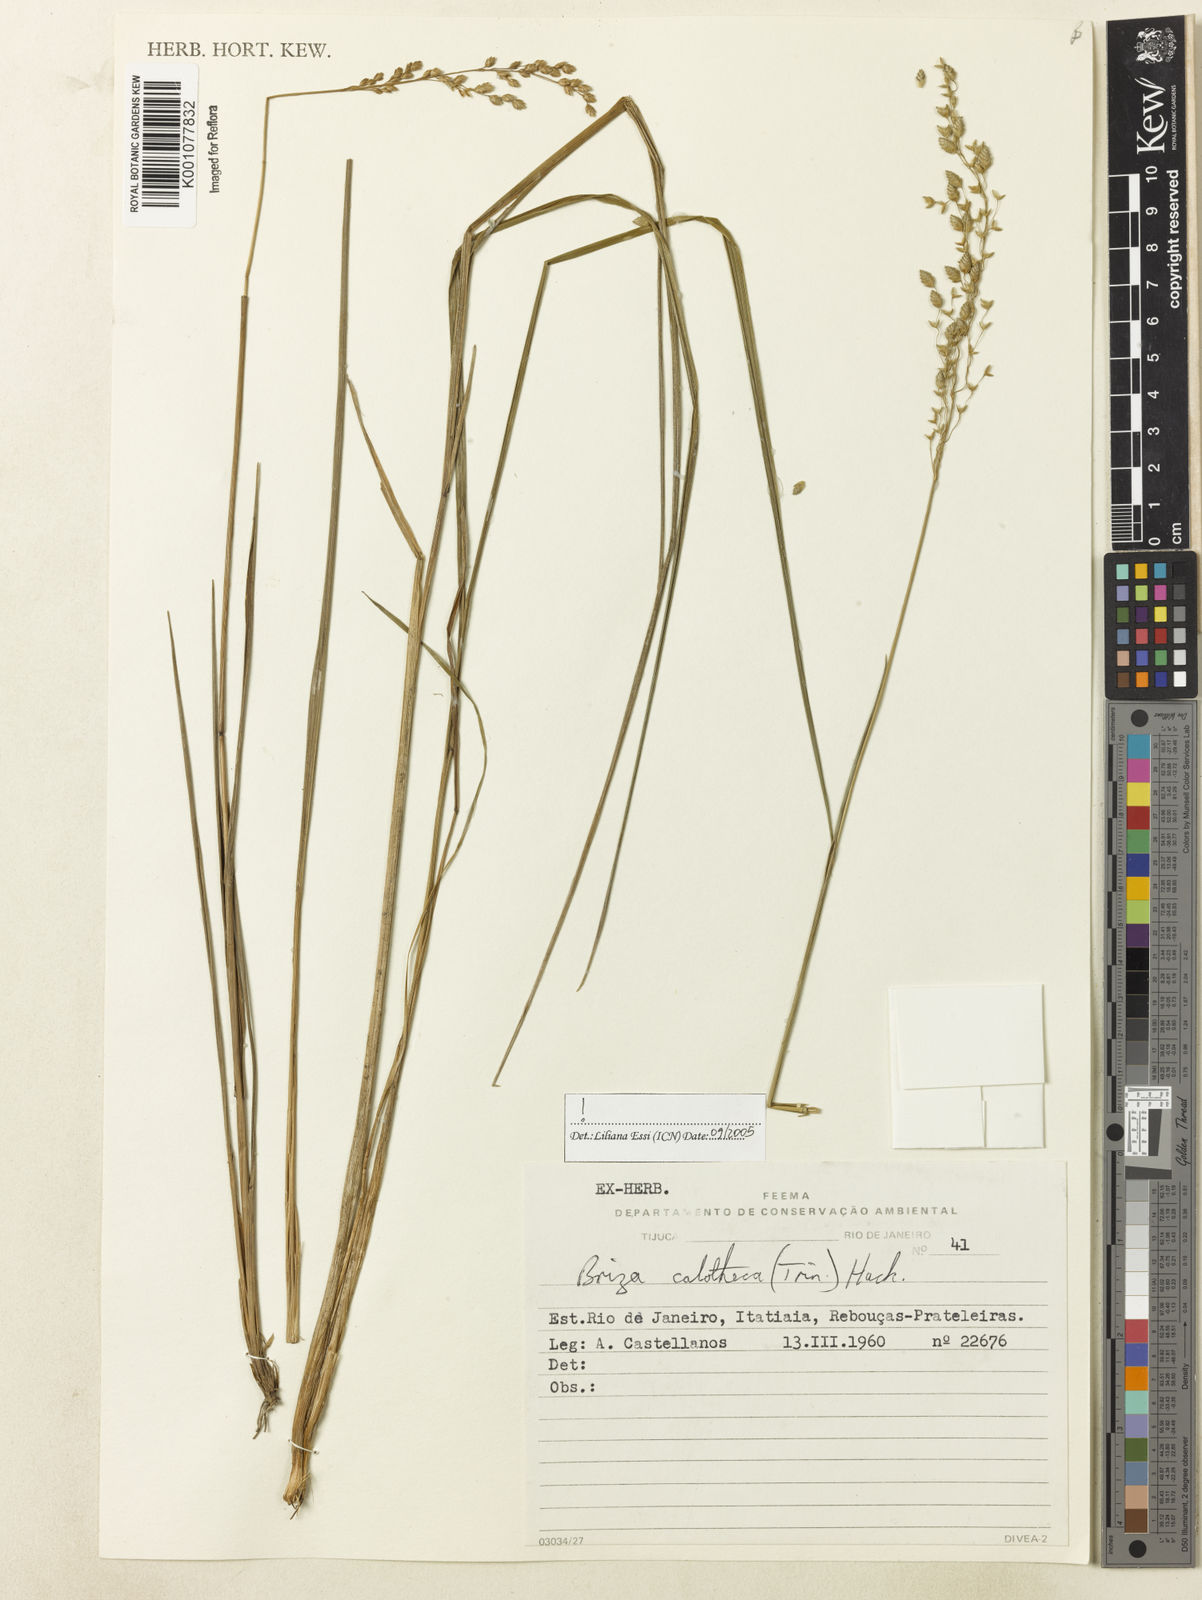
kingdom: Plantae
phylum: Tracheophyta
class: Liliopsida
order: Poales
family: Poaceae
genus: Poidium
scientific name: Poidium calotheca
